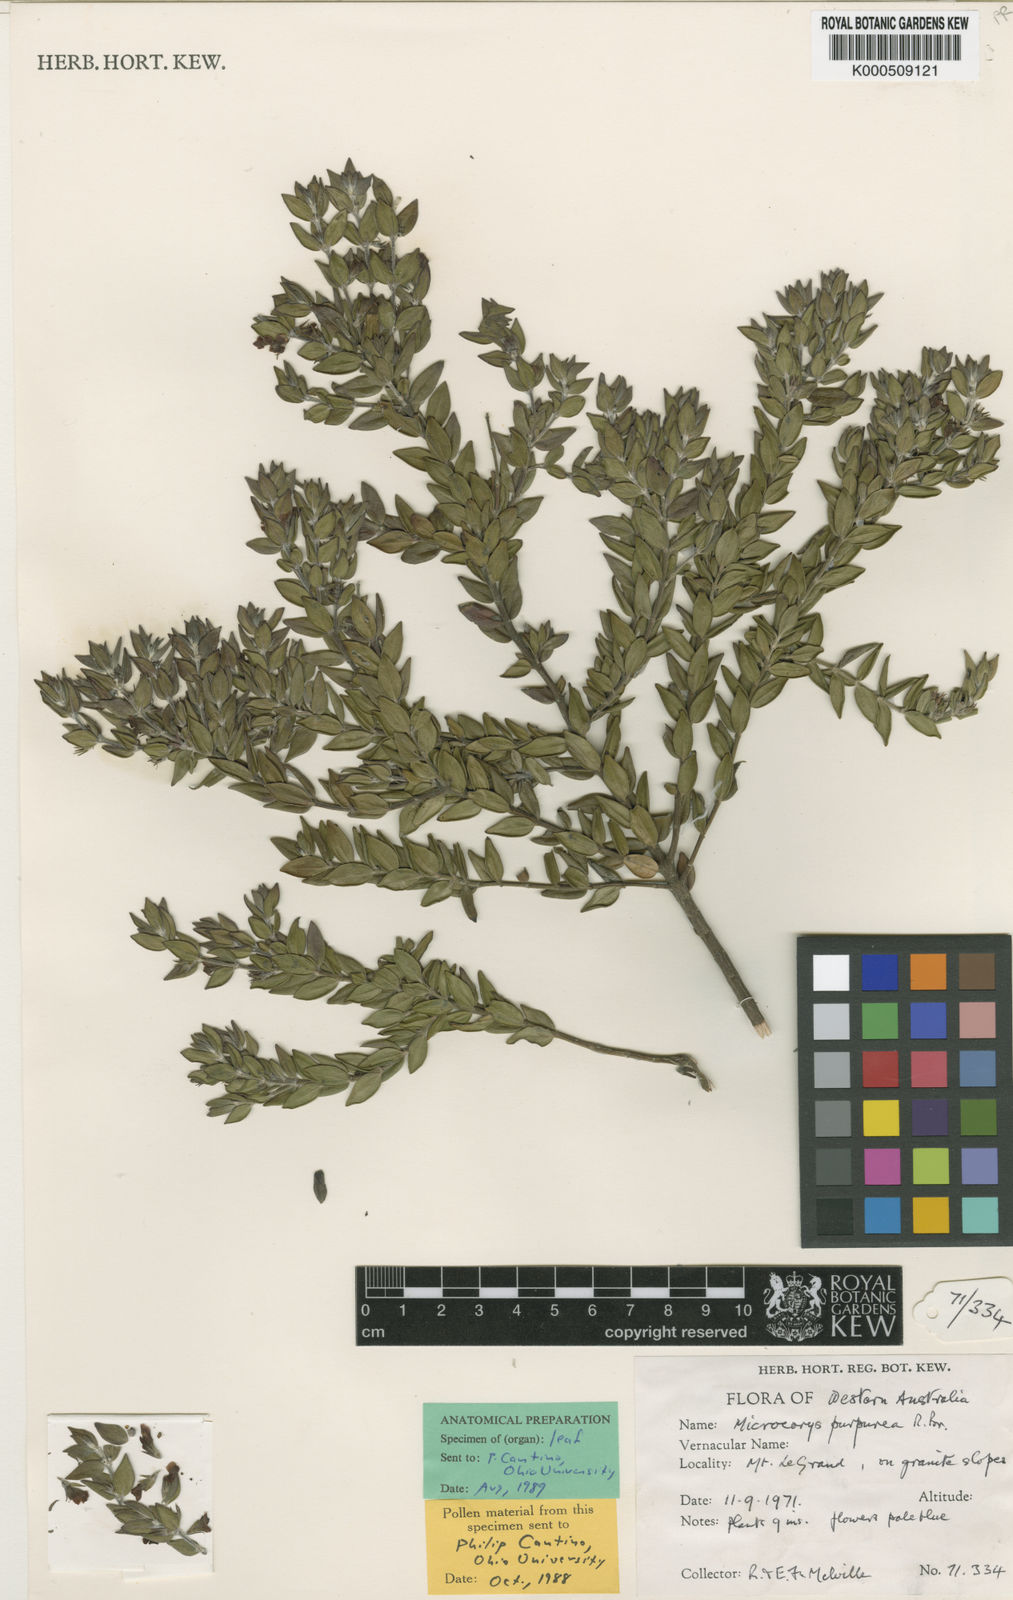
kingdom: Plantae
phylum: Tracheophyta
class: Magnoliopsida
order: Lamiales
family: Lamiaceae
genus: Microcorys
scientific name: Microcorys purpurea
